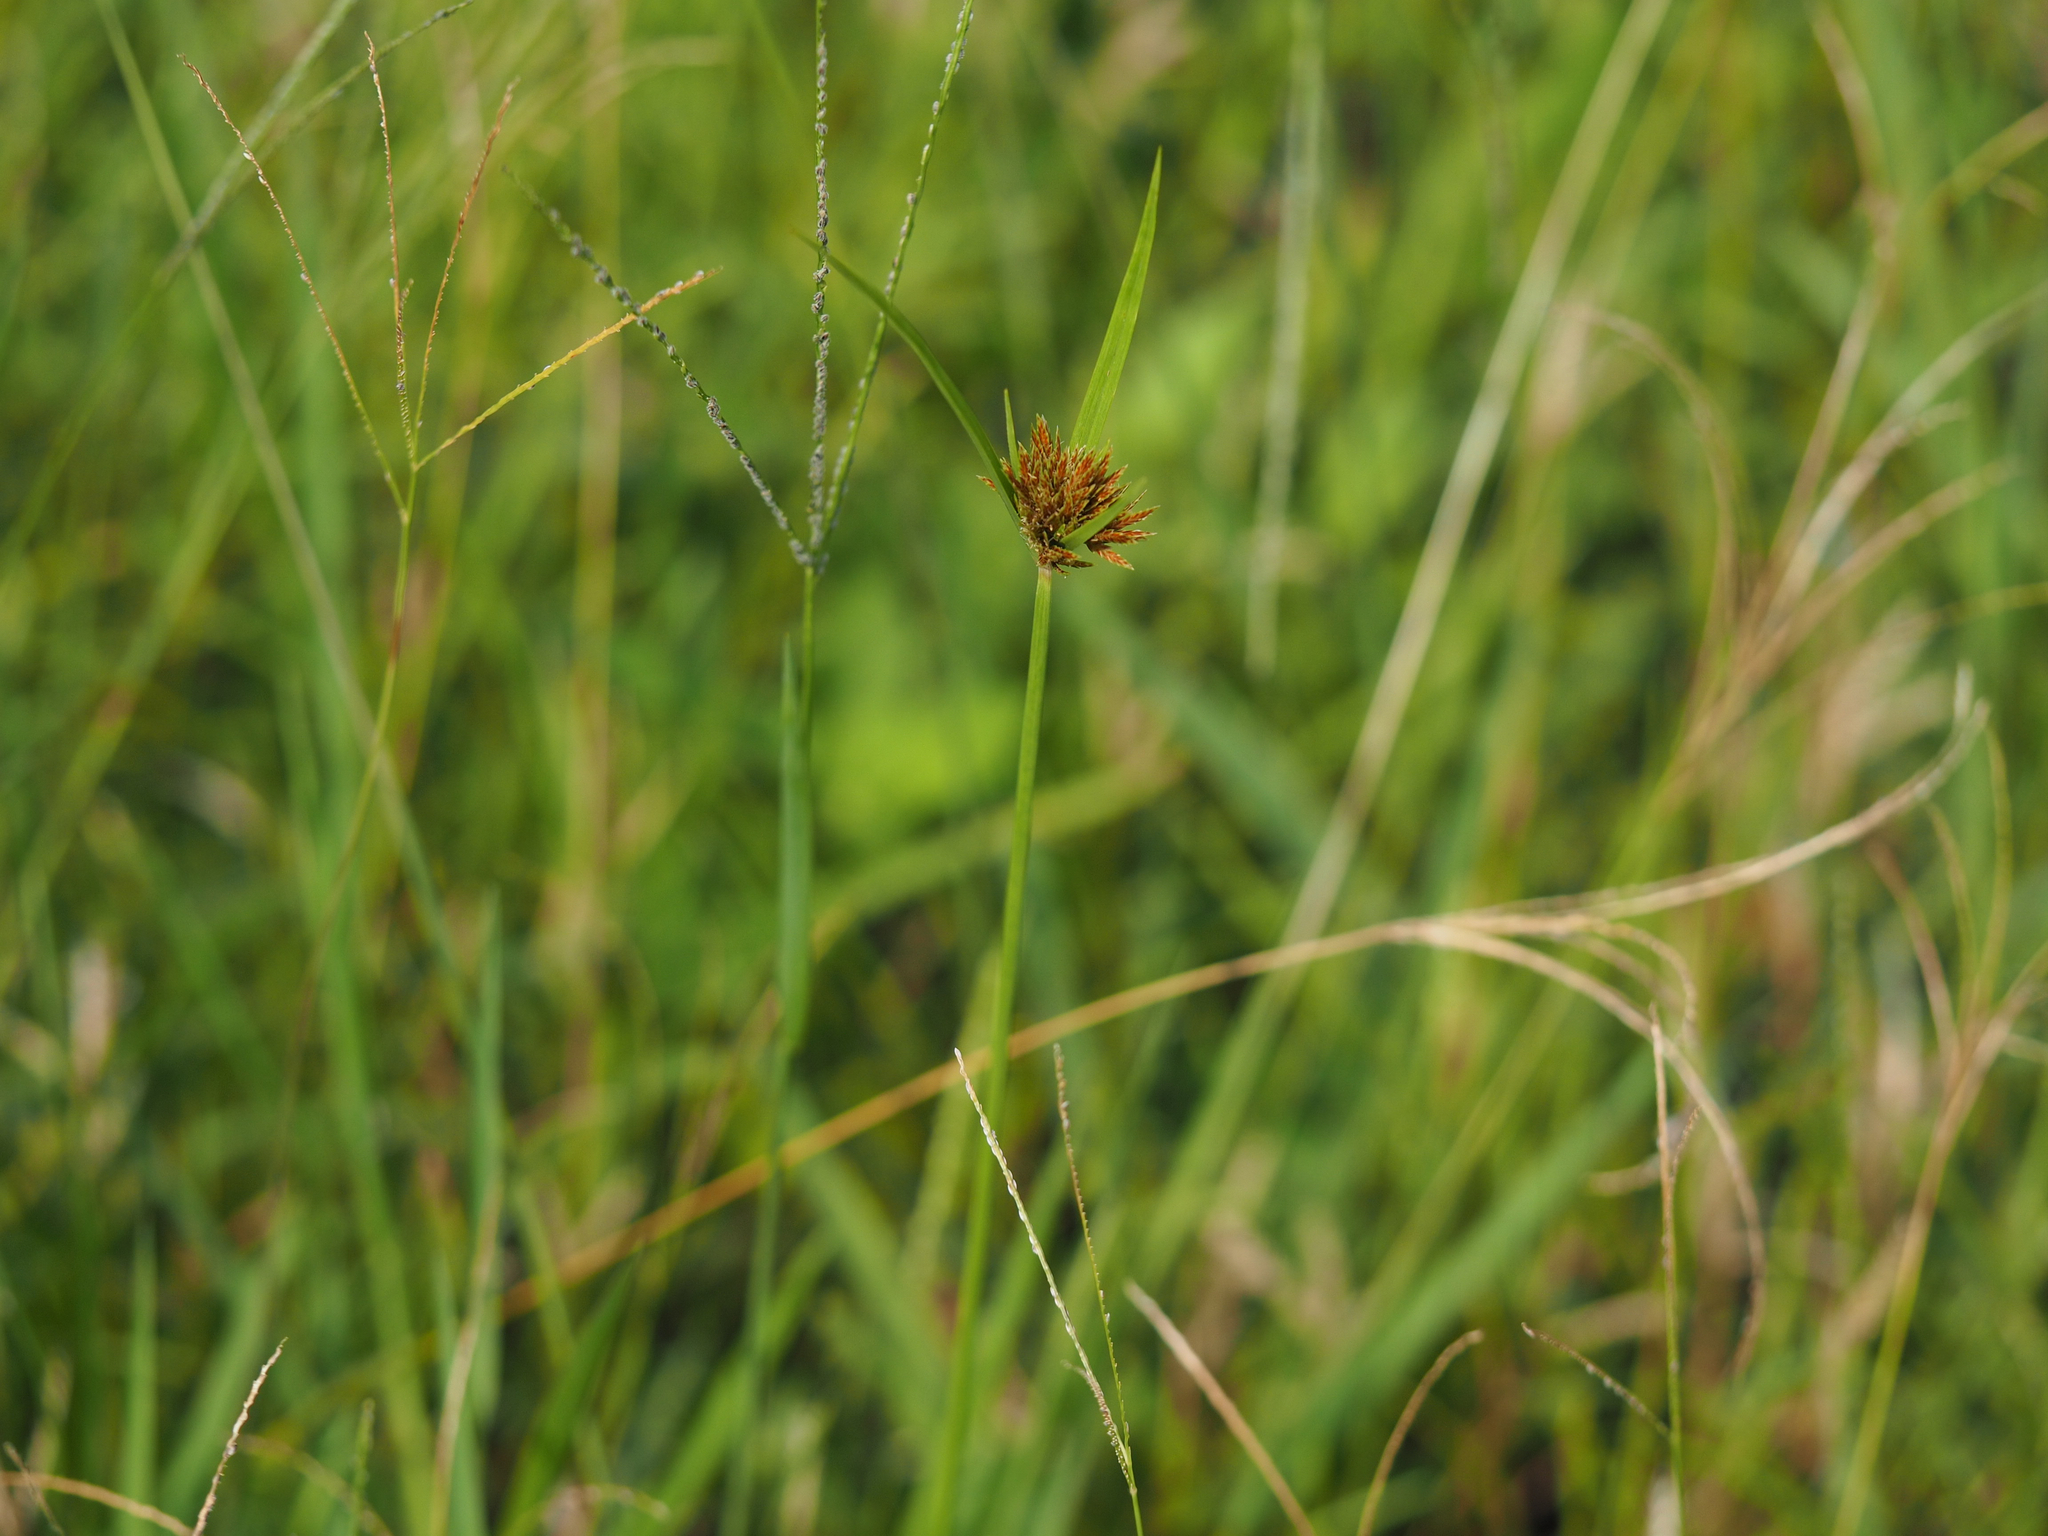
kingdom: Plantae
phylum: Tracheophyta
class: Liliopsida
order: Poales
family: Cyperaceae
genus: Cyperus
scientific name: Cyperus polystachyos
